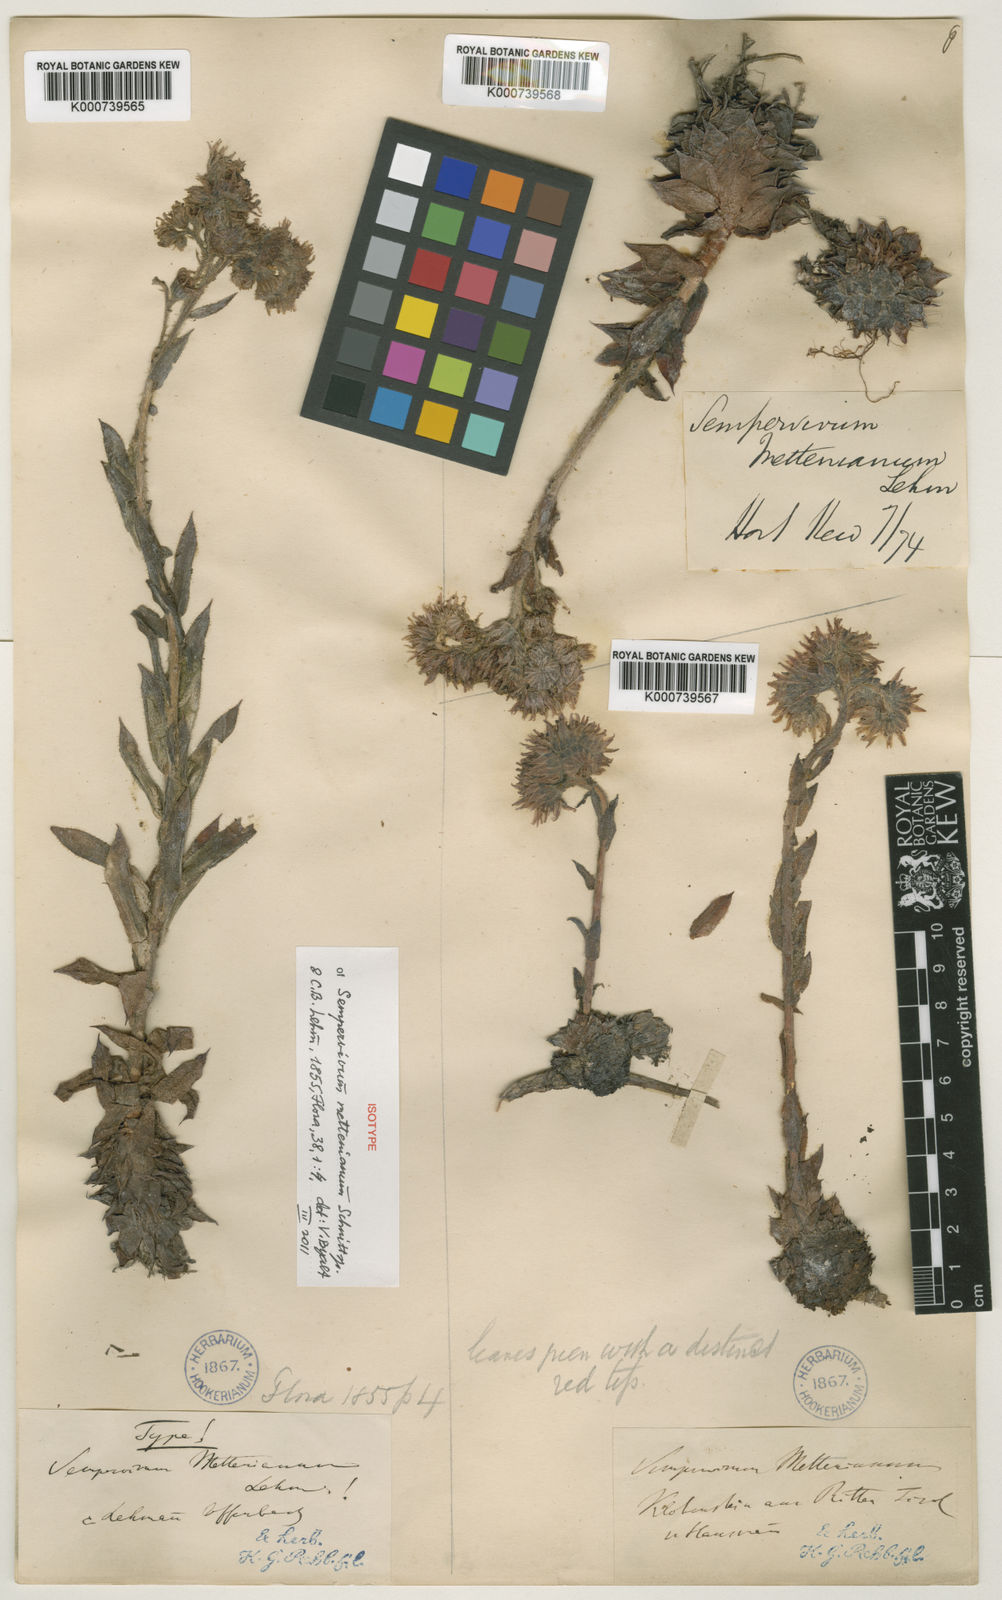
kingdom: Plantae
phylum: Tracheophyta
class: Magnoliopsida
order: Saxifragales
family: Crassulaceae
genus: Sempervivum
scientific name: Sempervivum tectorum
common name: House-leek
